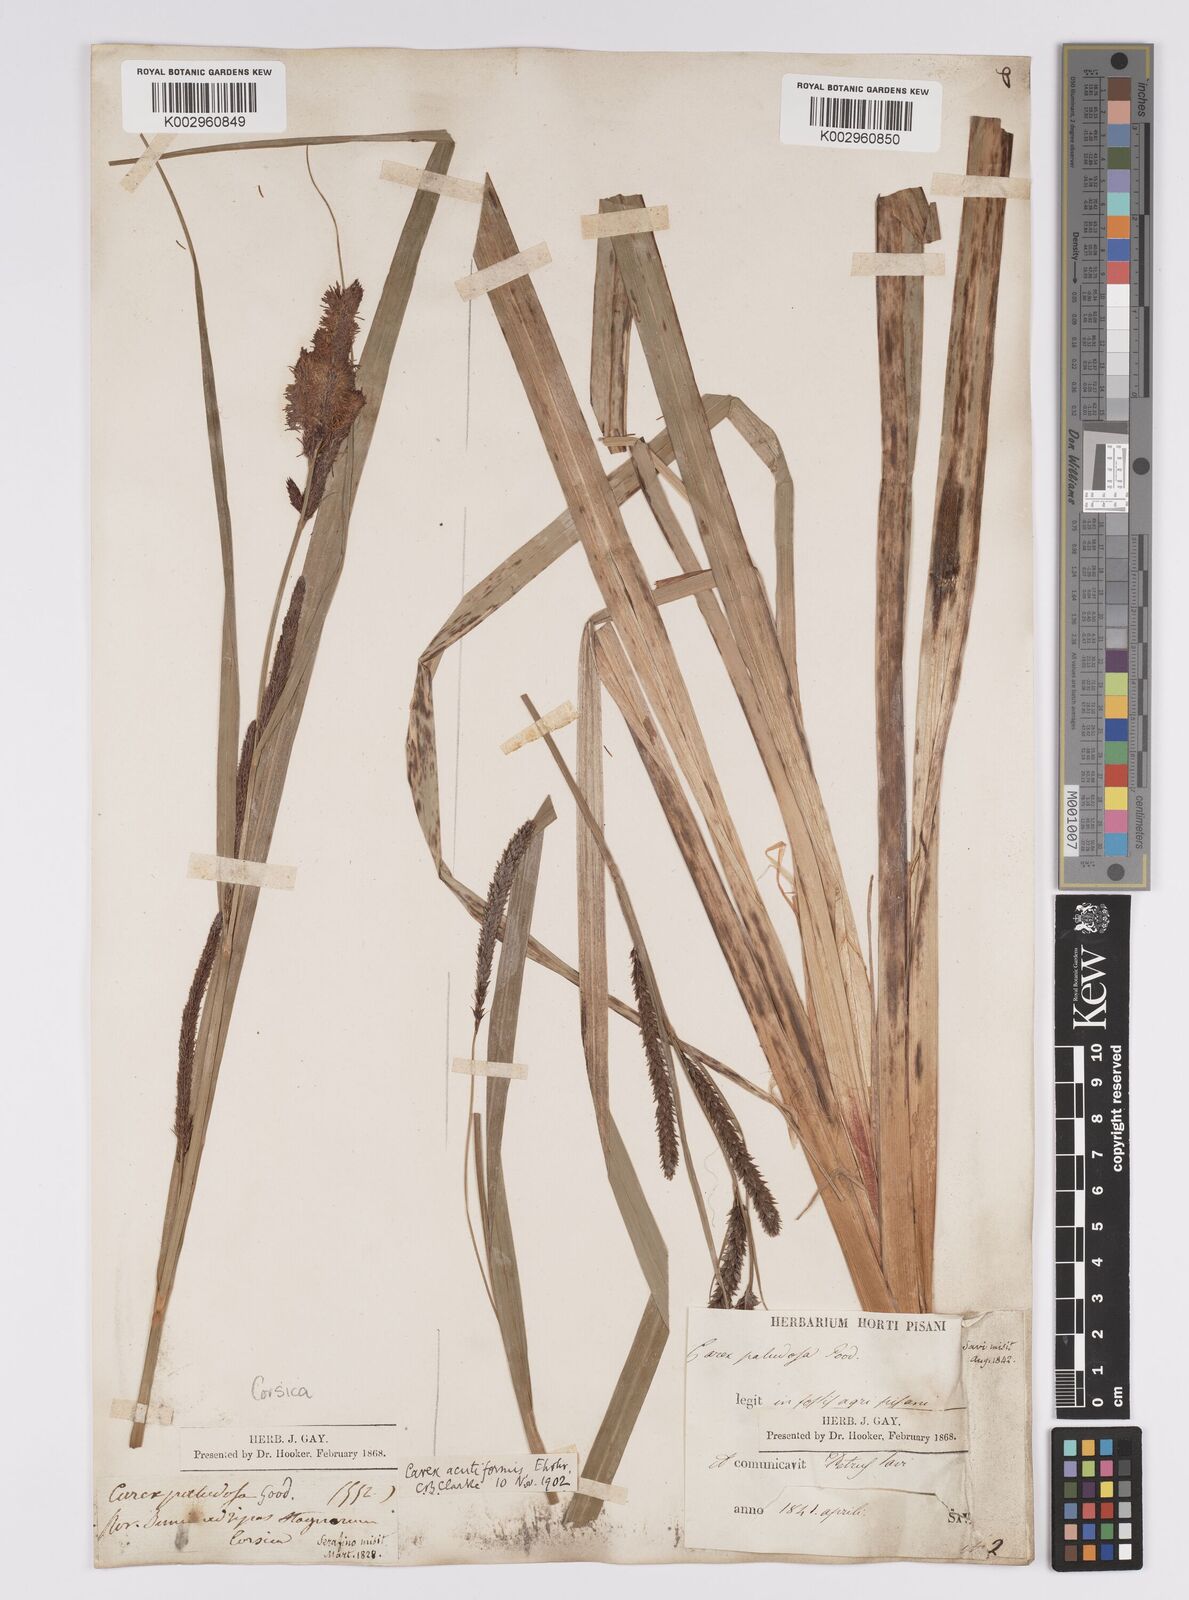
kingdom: Plantae
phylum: Tracheophyta
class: Liliopsida
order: Poales
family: Cyperaceae
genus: Carex
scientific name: Carex acutiformis
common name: Lesser pond-sedge
